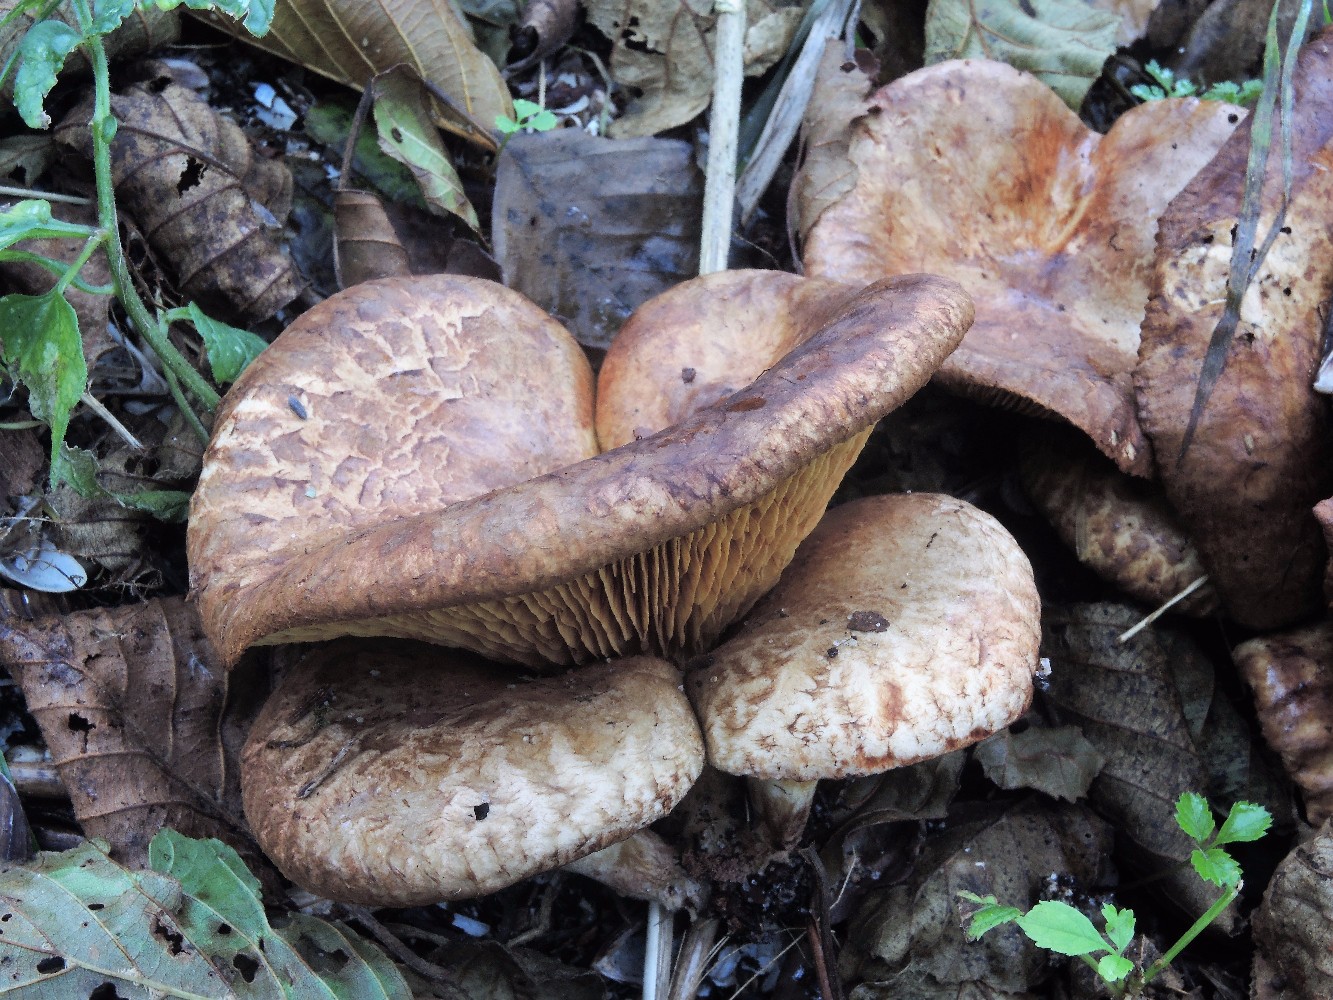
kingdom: Fungi
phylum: Basidiomycota
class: Agaricomycetes
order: Boletales
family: Paxillaceae
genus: Paxillus
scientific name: Paxillus rubicundulus
